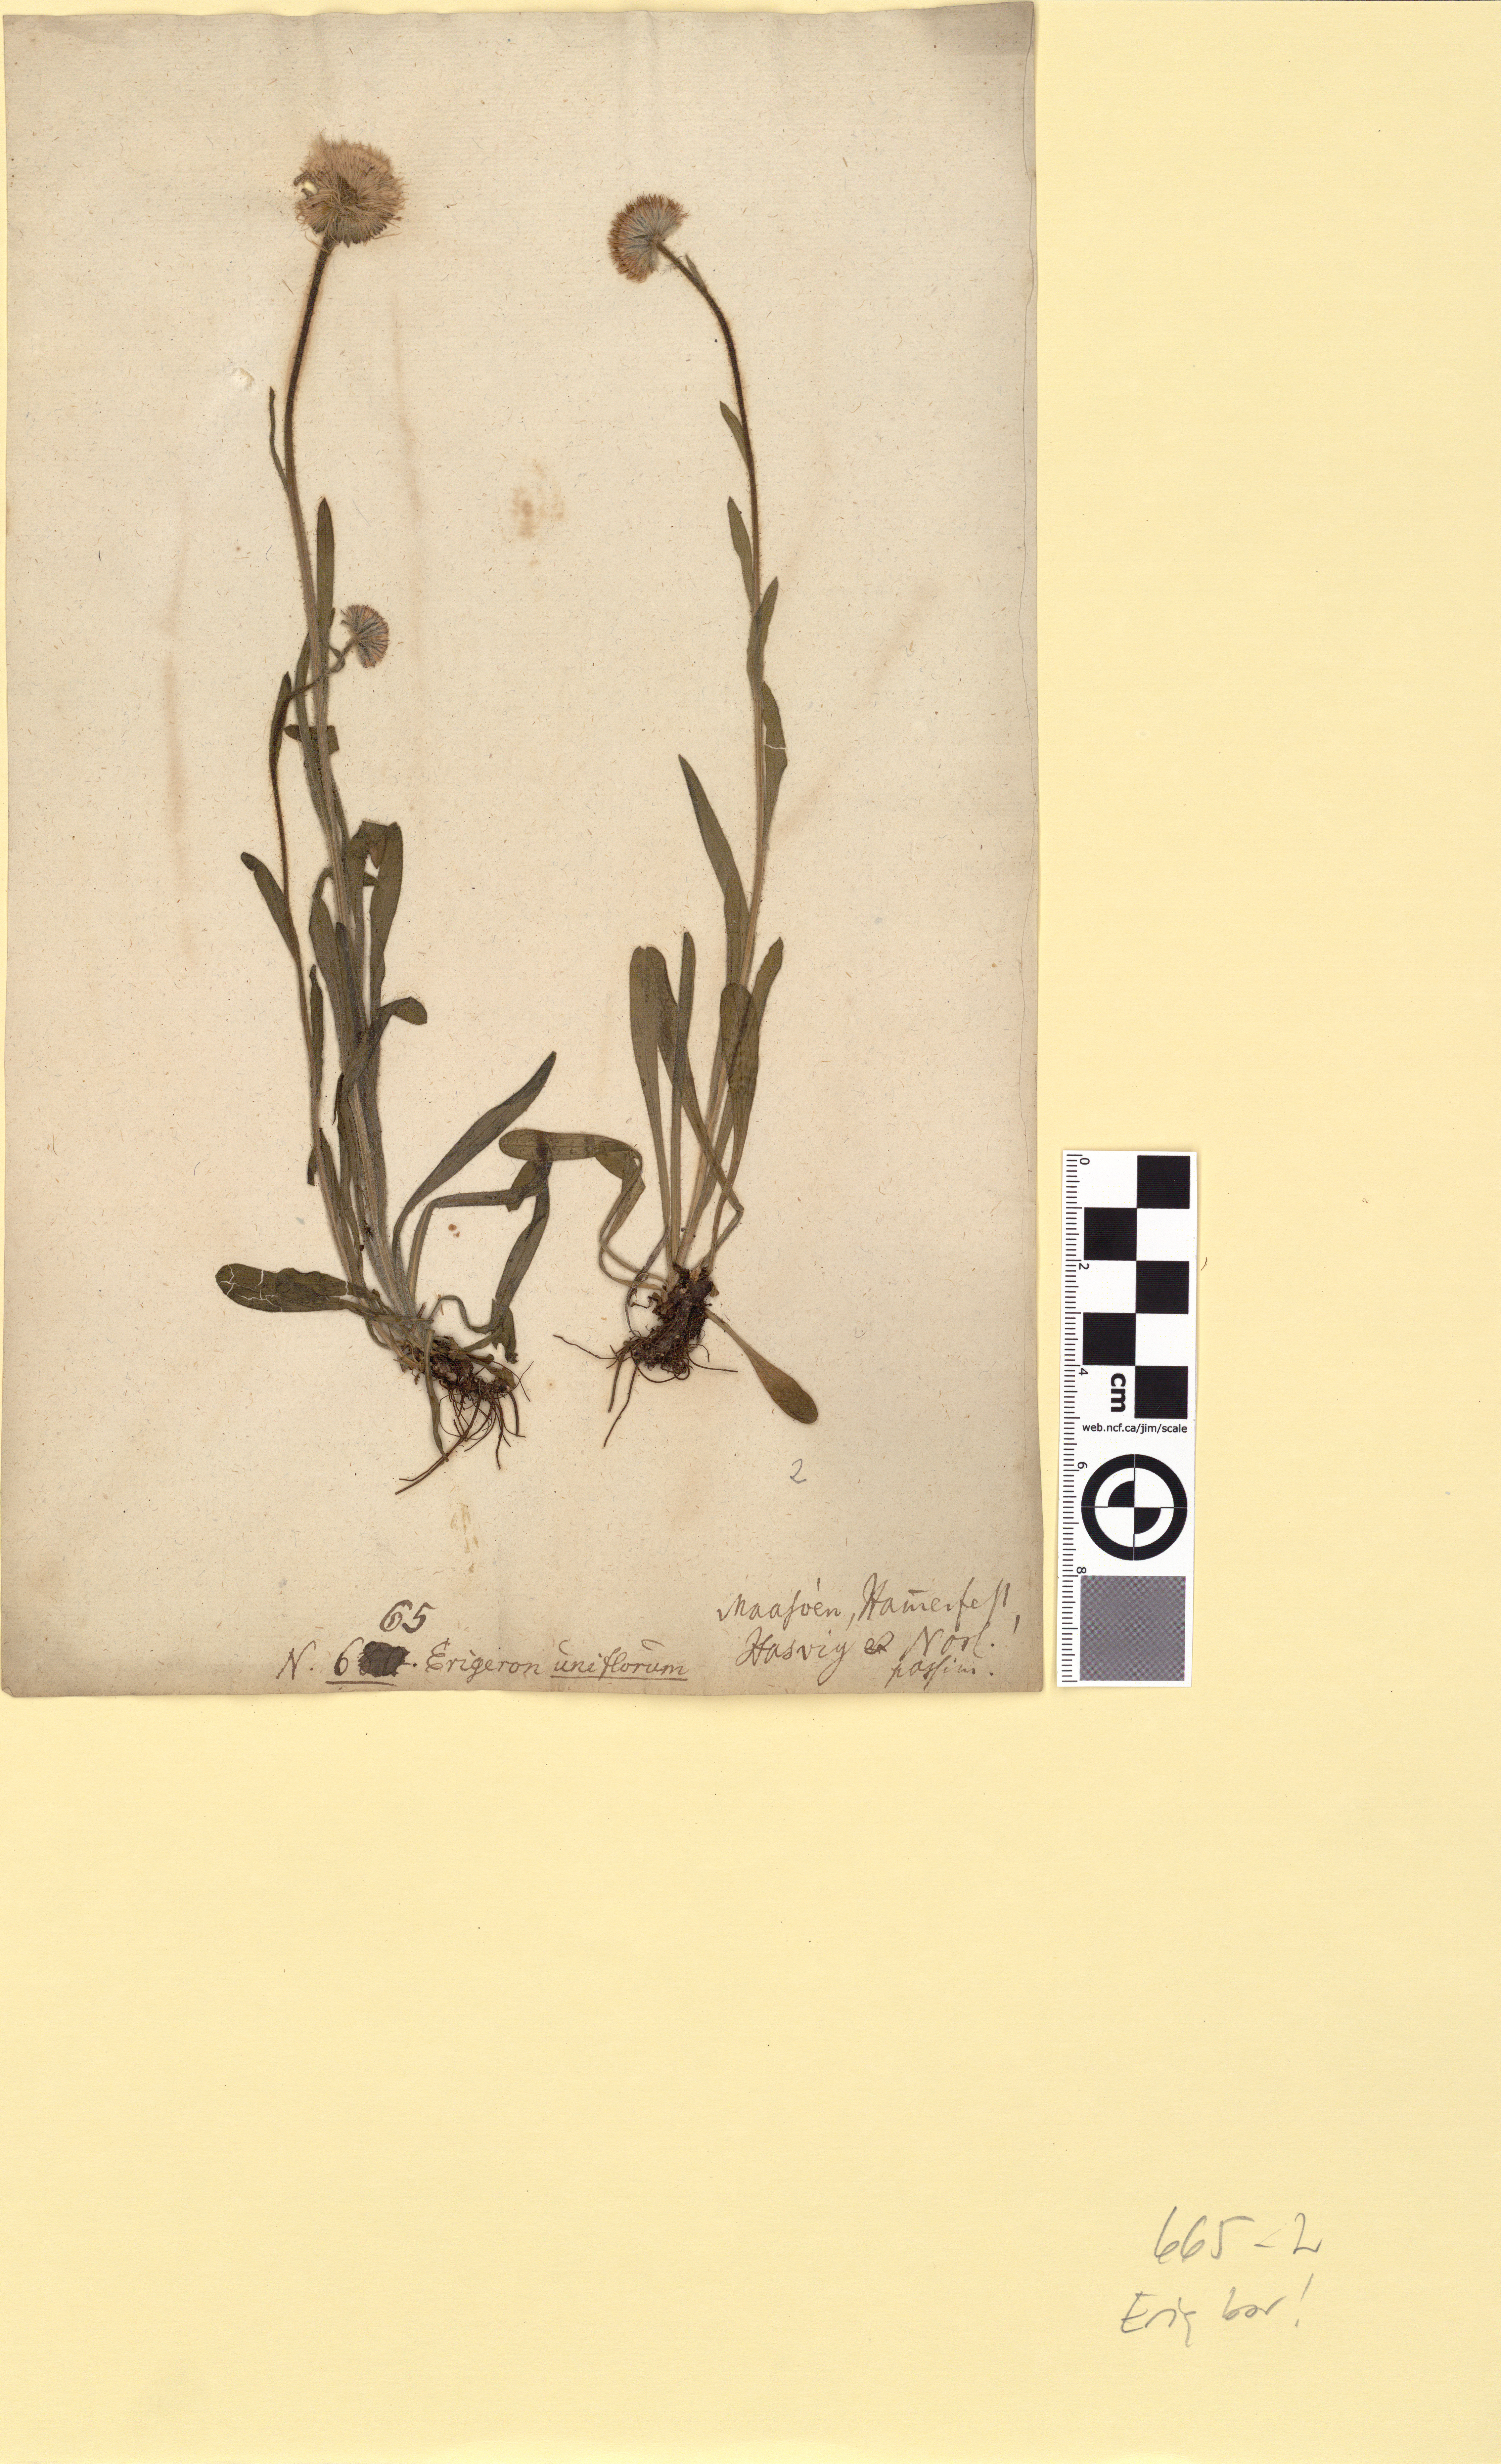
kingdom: Plantae
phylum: Tracheophyta
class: Magnoliopsida
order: Asterales
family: Asteraceae
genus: Erigeron
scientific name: Erigeron borealis
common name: Alpine fleabane
